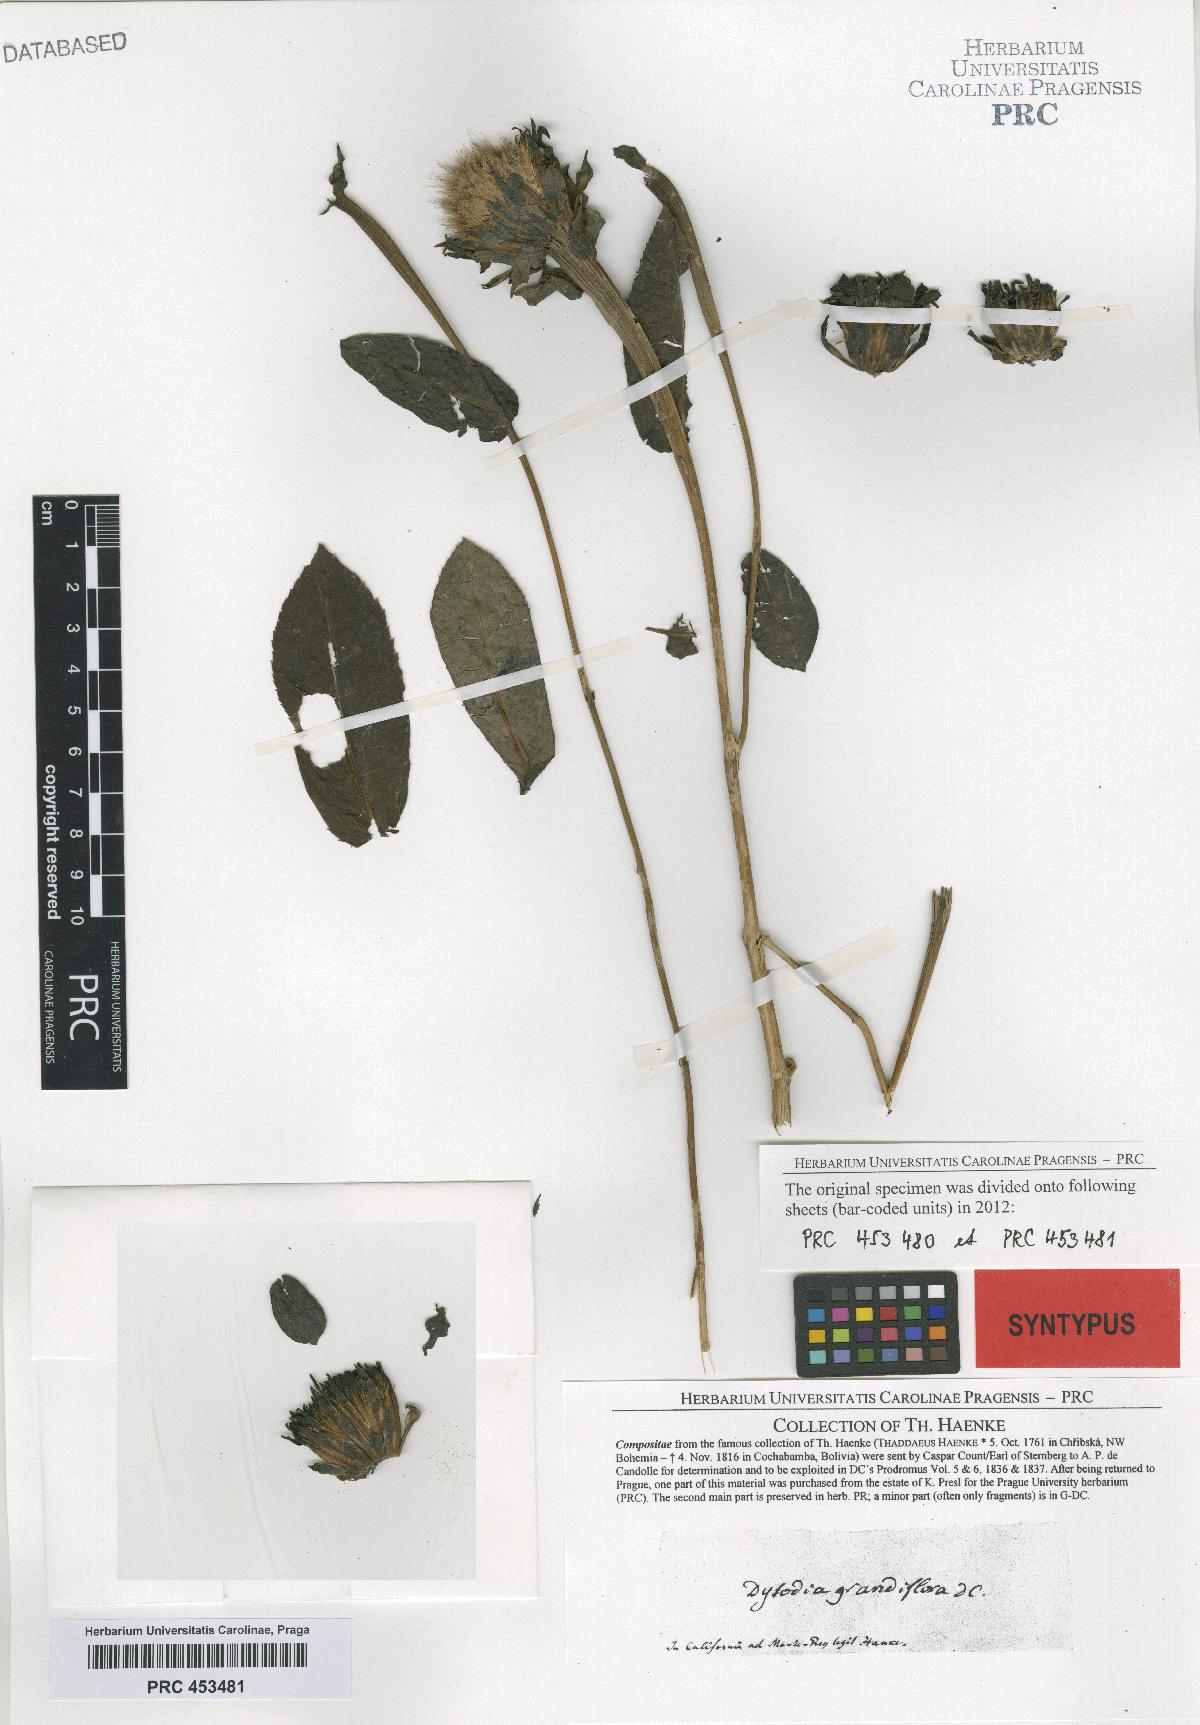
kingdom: Plantae
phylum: Tracheophyta
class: Magnoliopsida
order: Asterales
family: Asteraceae
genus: Boeberoides
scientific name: Boeberoides grandiflora
